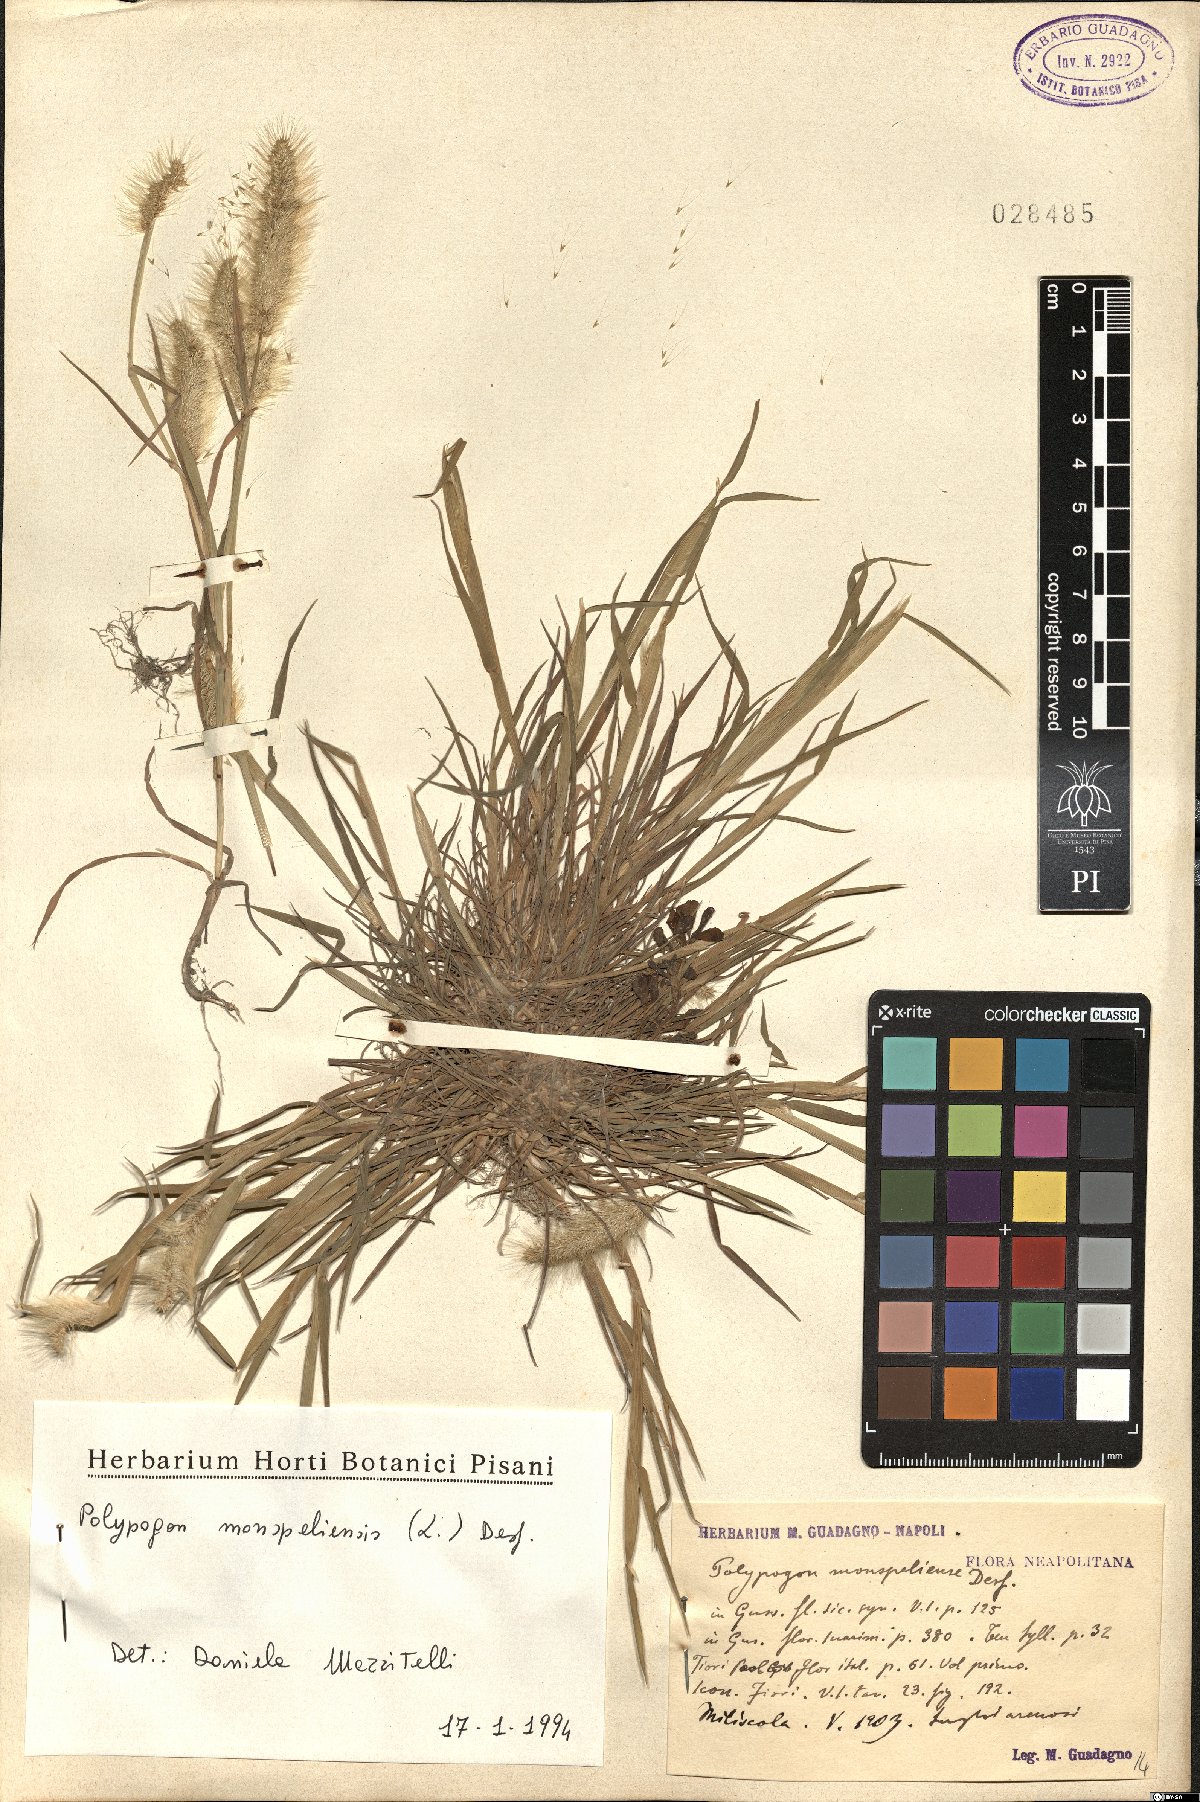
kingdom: Plantae
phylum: Tracheophyta
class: Liliopsida
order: Poales
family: Poaceae
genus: Polypogon
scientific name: Polypogon monspeliensis
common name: Annual rabbitsfoot grass
